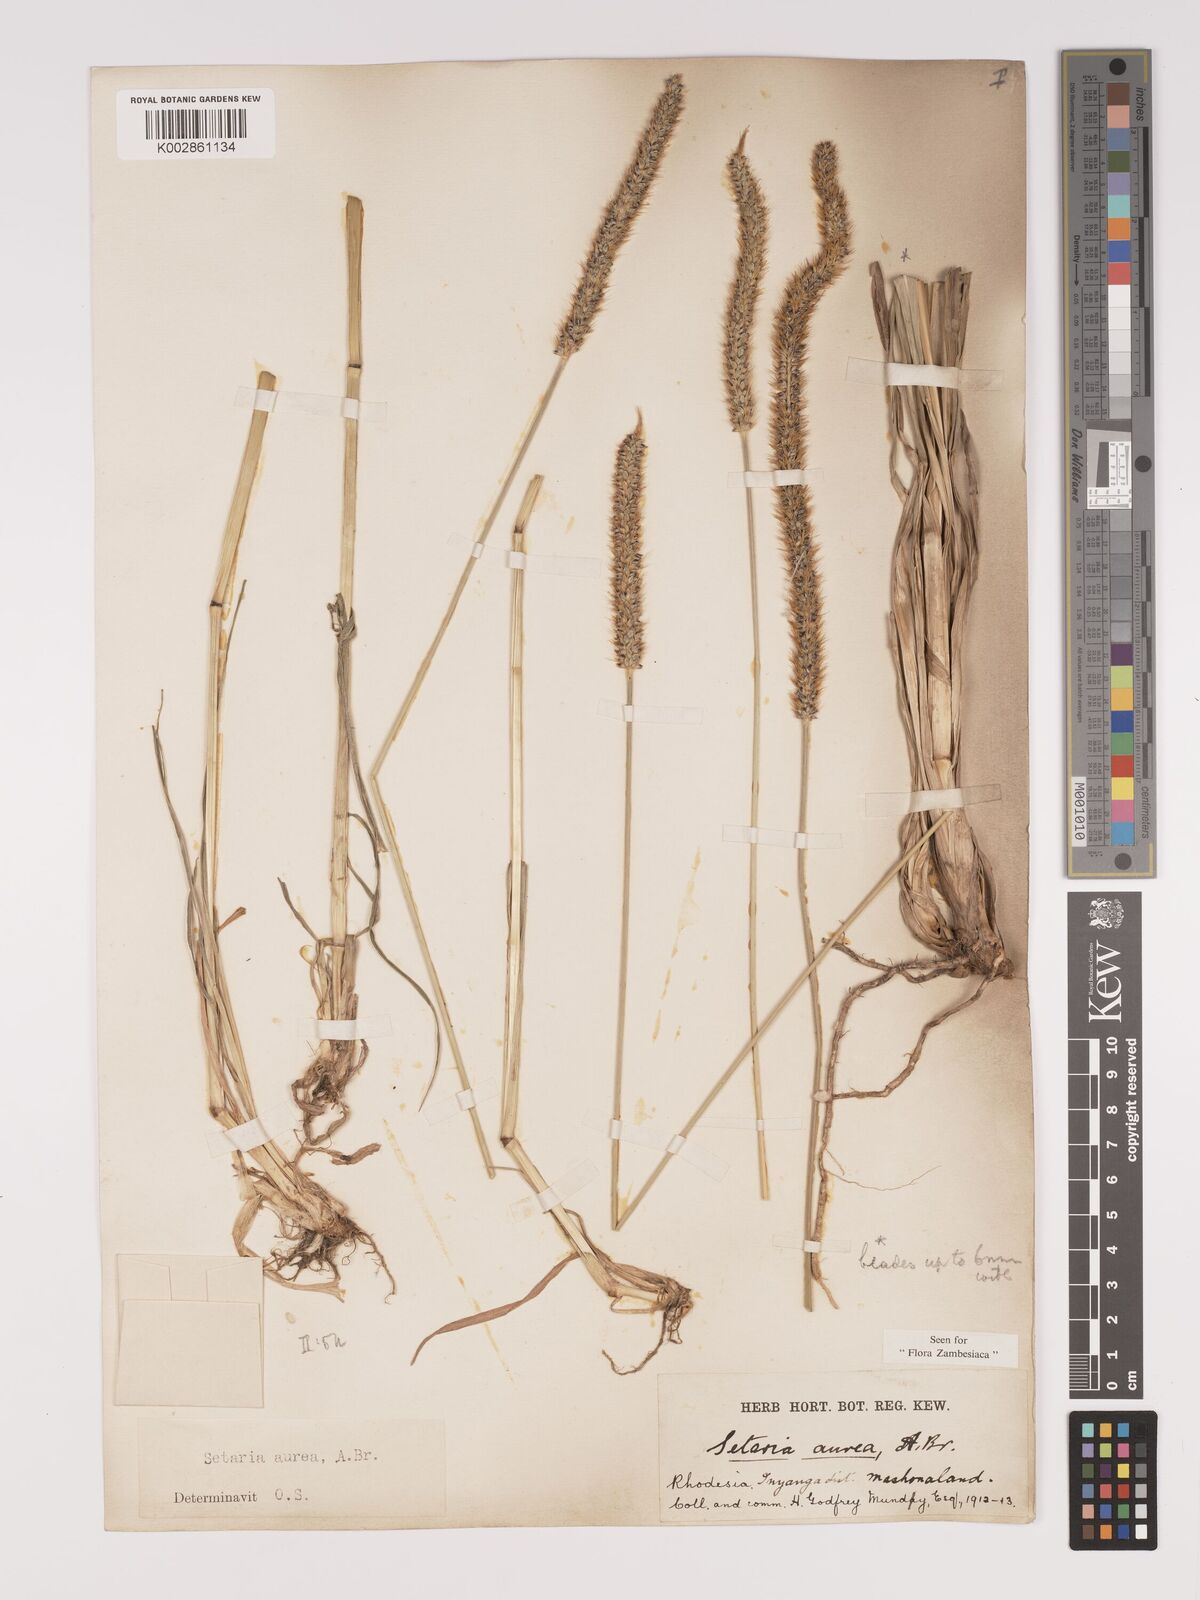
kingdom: Plantae
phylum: Tracheophyta
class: Liliopsida
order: Poales
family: Poaceae
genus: Setaria
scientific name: Setaria sphacelata
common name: African bristlegrass
